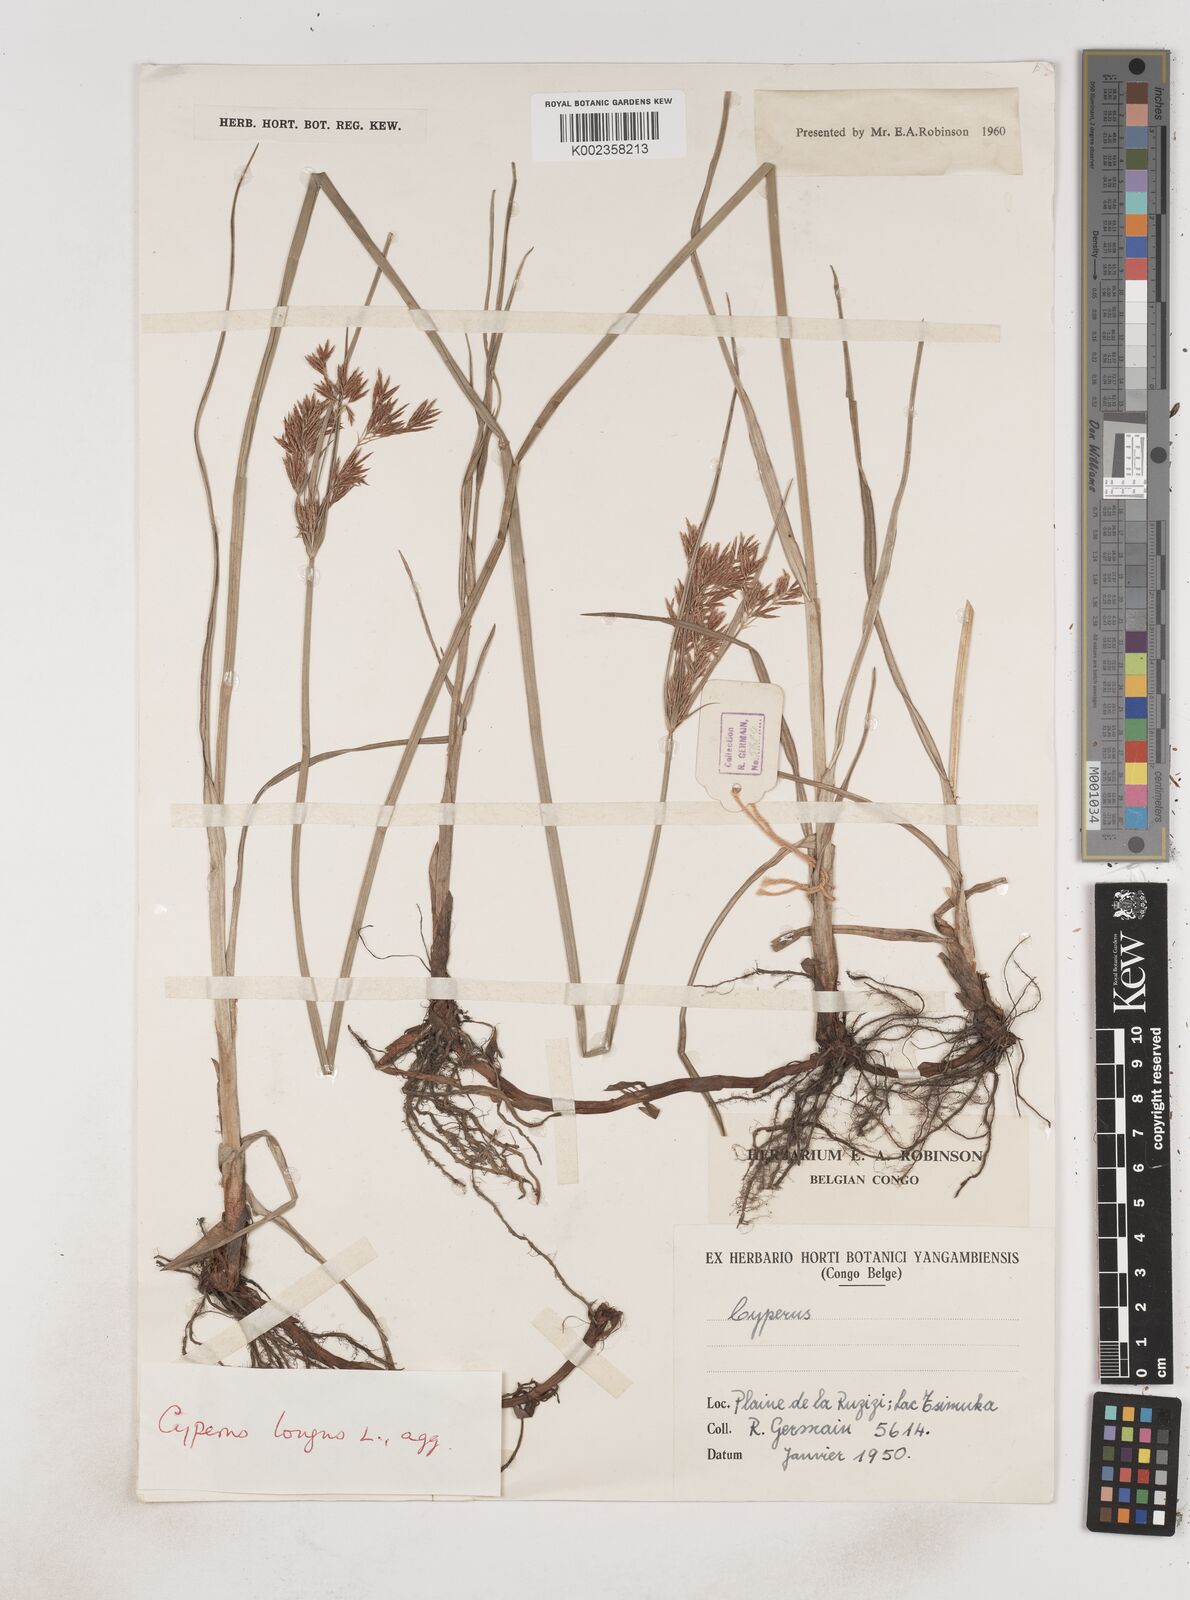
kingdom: Plantae
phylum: Tracheophyta
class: Liliopsida
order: Poales
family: Cyperaceae
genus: Cyperus
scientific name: Cyperus longus
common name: Galingale
